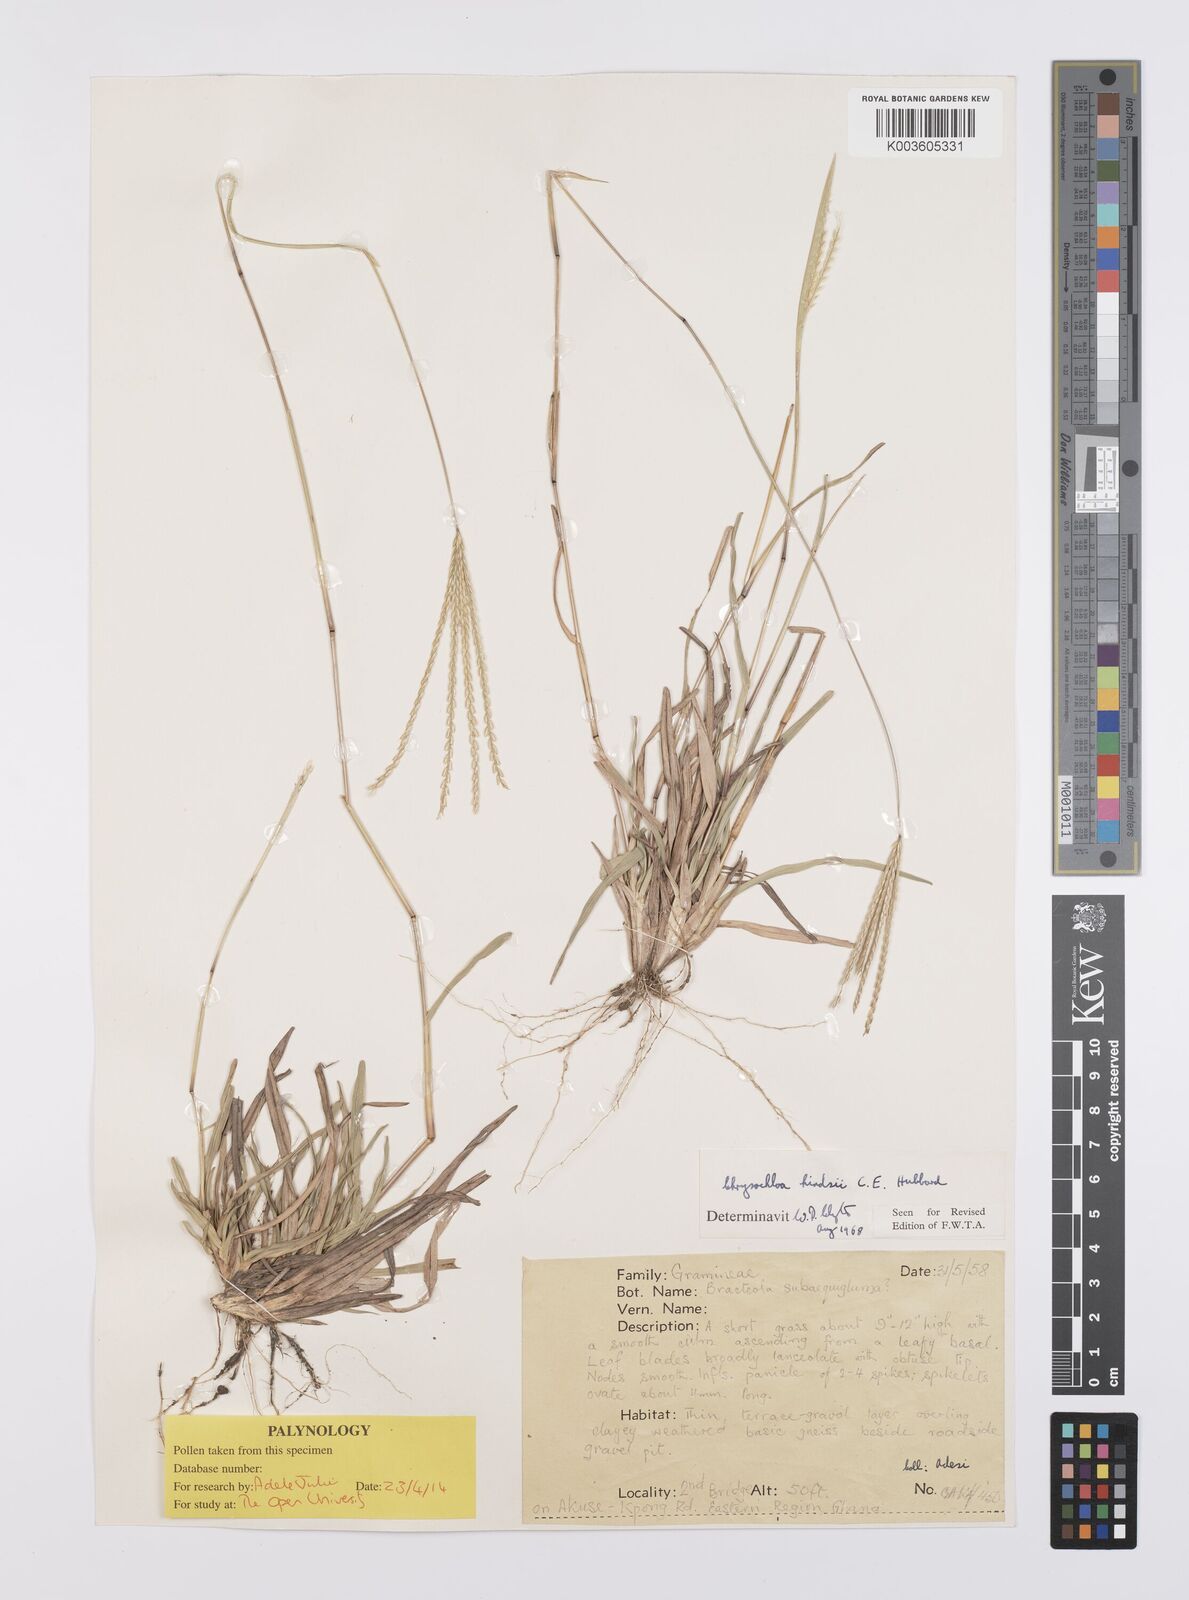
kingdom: Plantae
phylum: Tracheophyta
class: Liliopsida
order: Poales
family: Poaceae
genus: Chrysochloa
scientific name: Chrysochloa hindsii
